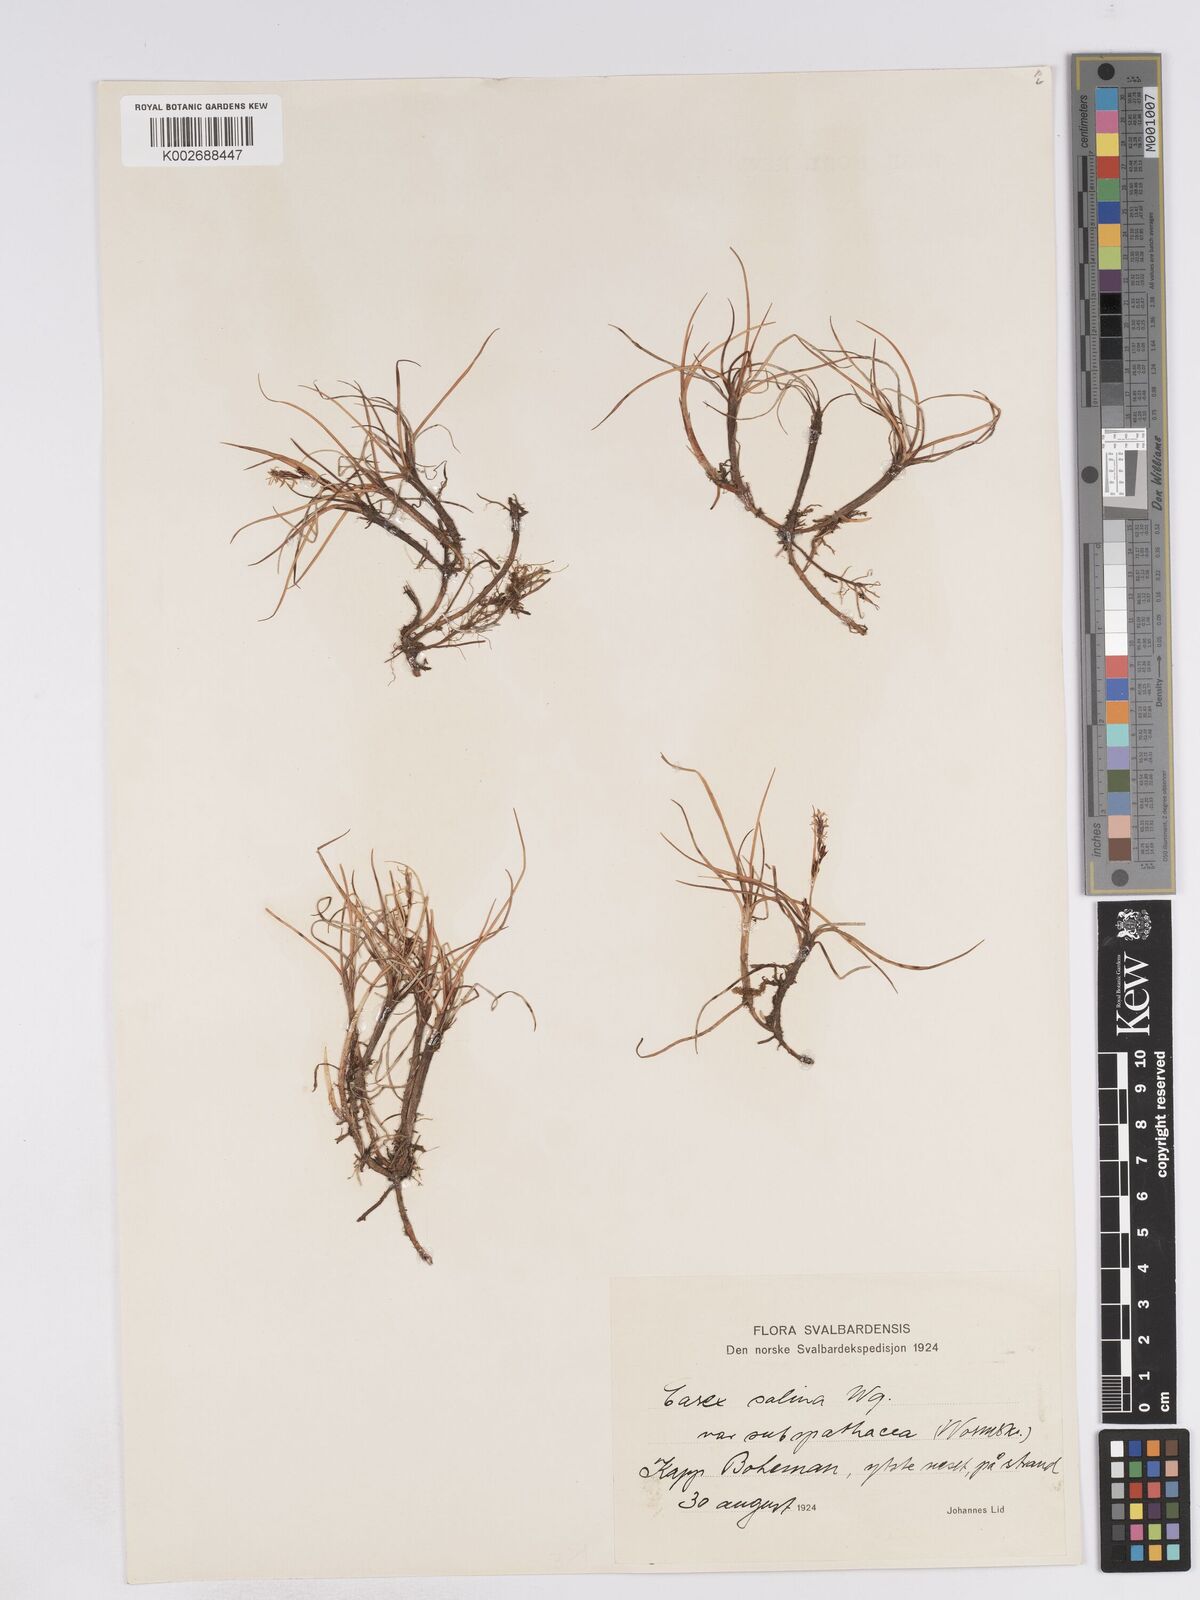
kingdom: Plantae
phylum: Tracheophyta
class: Liliopsida
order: Poales
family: Cyperaceae
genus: Carex
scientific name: Carex subspathacea
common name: Hoppner's sedge
